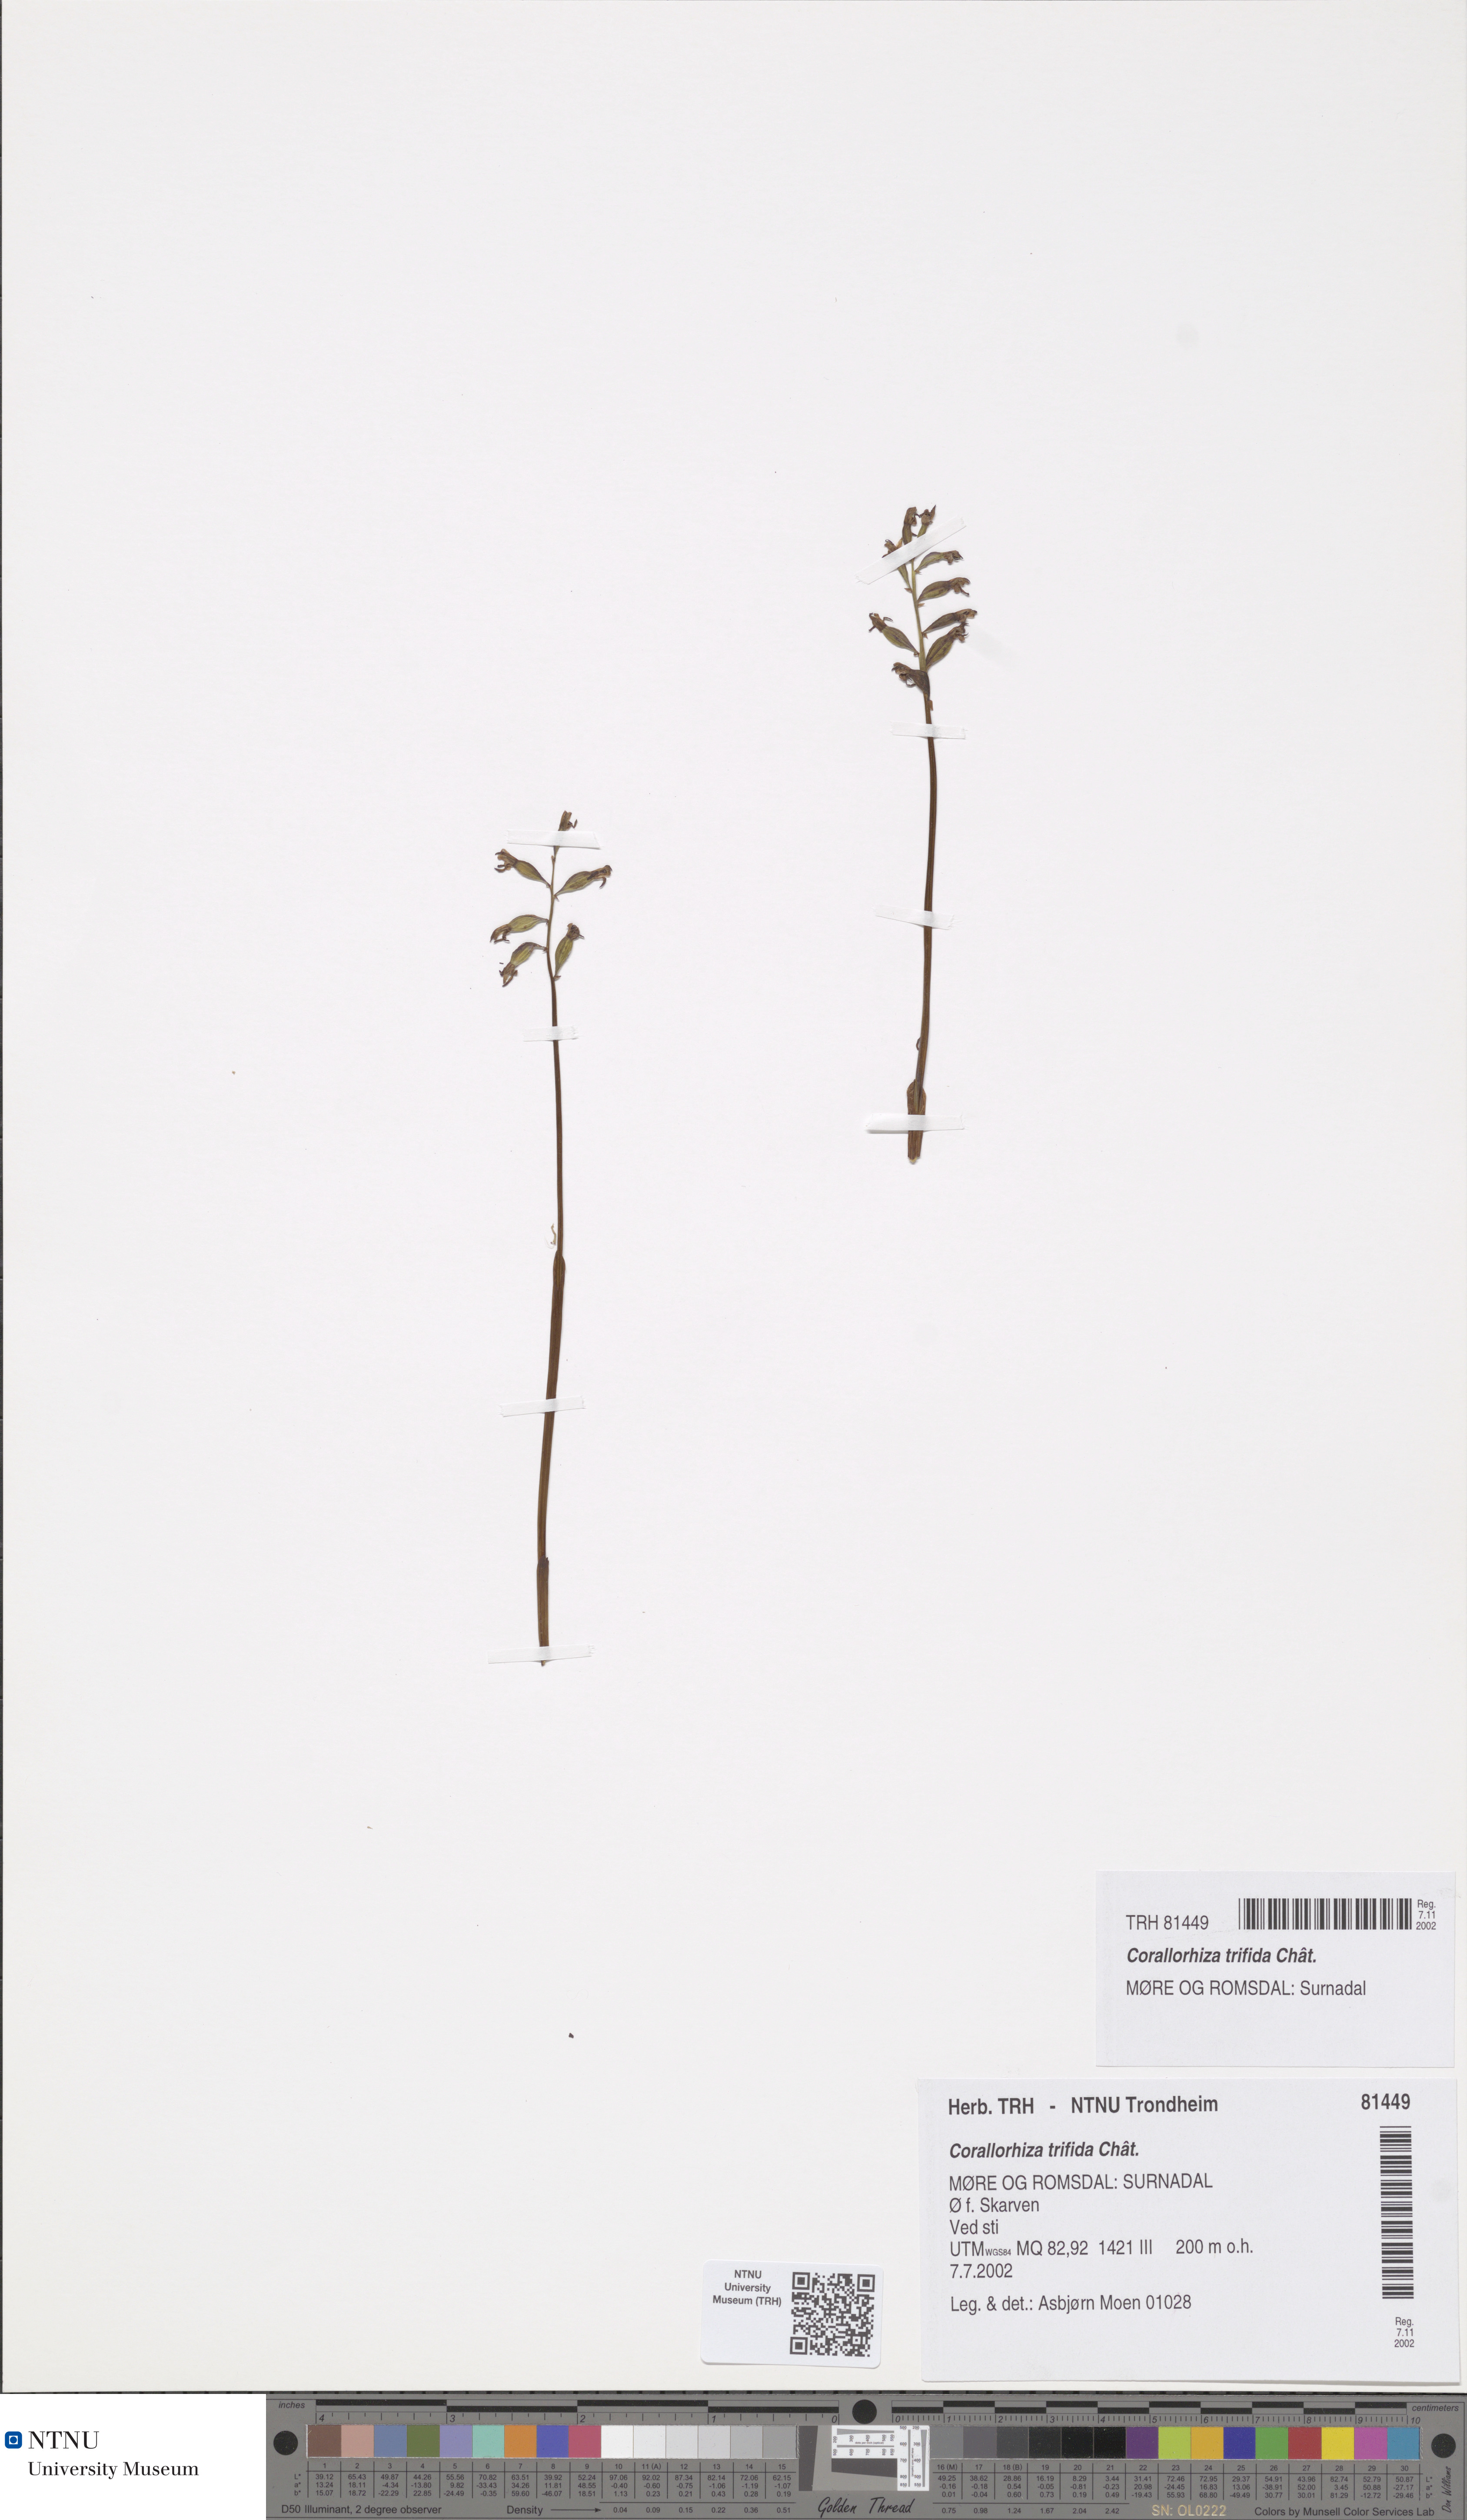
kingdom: Plantae
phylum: Tracheophyta
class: Liliopsida
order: Asparagales
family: Orchidaceae
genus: Corallorhiza
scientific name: Corallorhiza trifida
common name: Yellow coralroot
